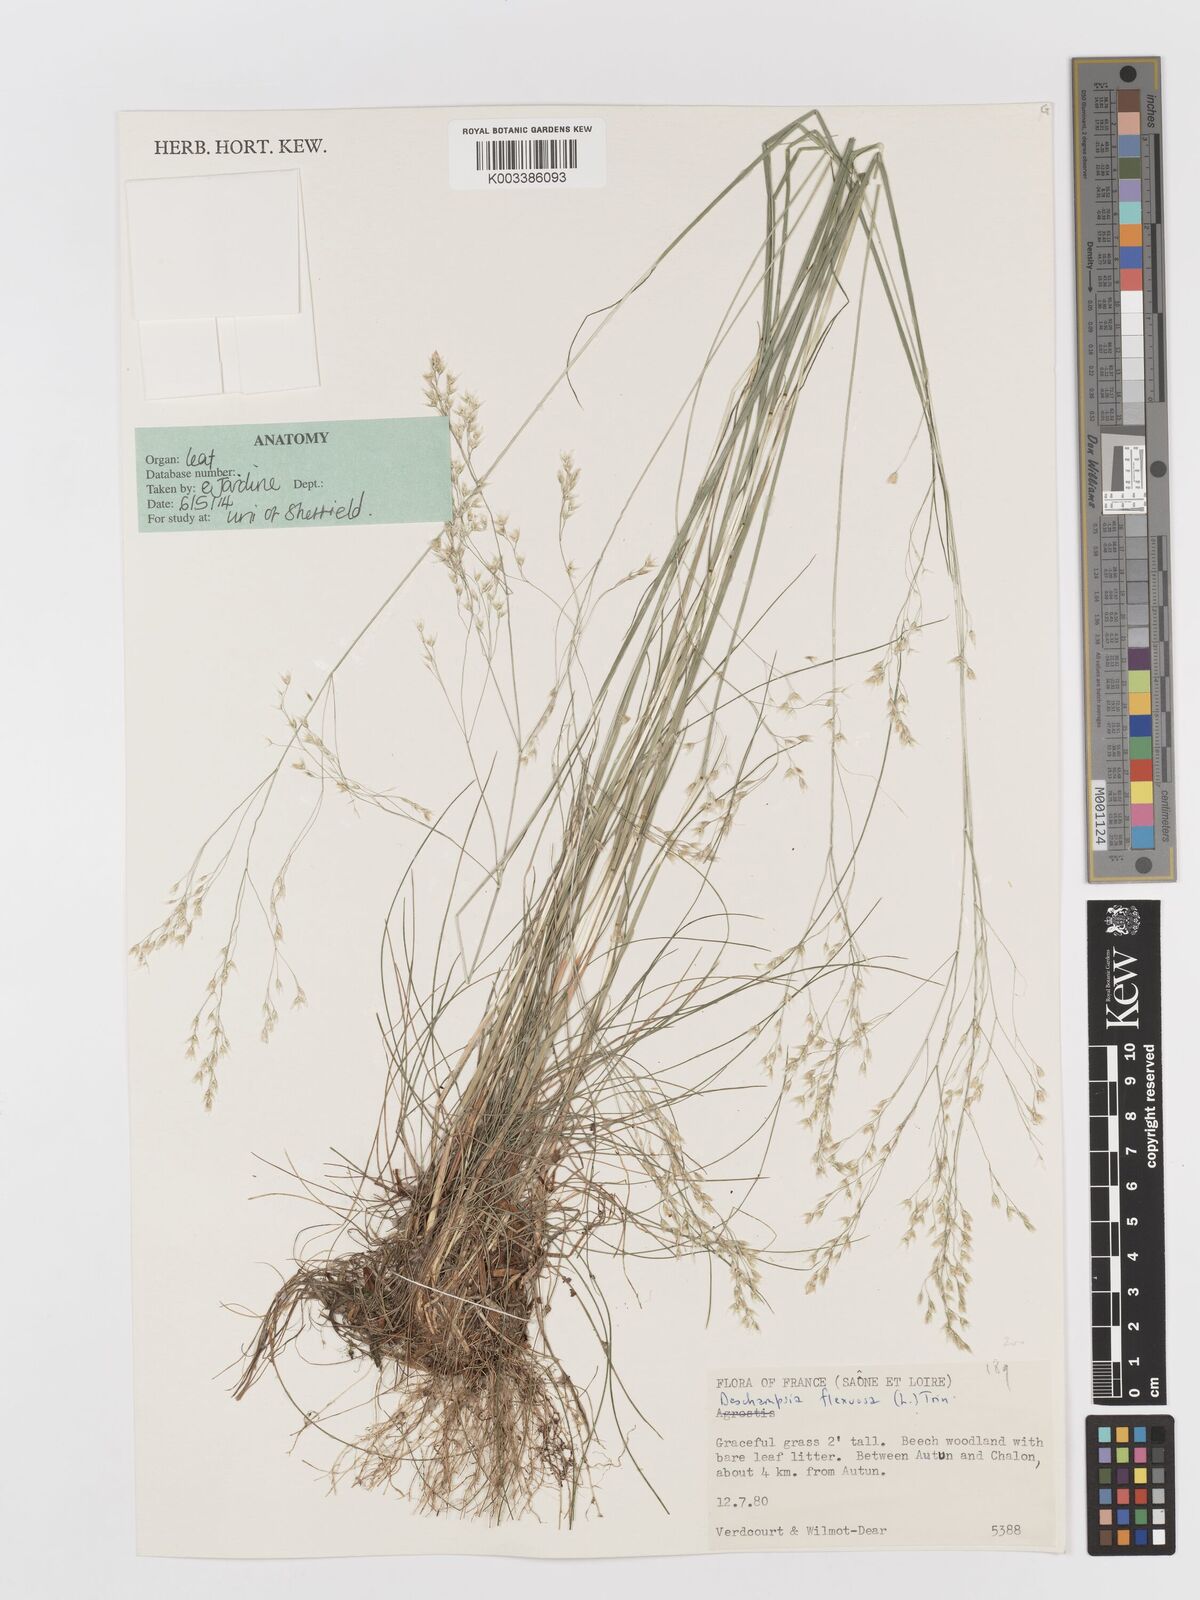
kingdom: Plantae
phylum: Tracheophyta
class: Liliopsida
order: Poales
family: Poaceae
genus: Avenella
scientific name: Avenella flexuosa
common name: Wavy hairgrass
